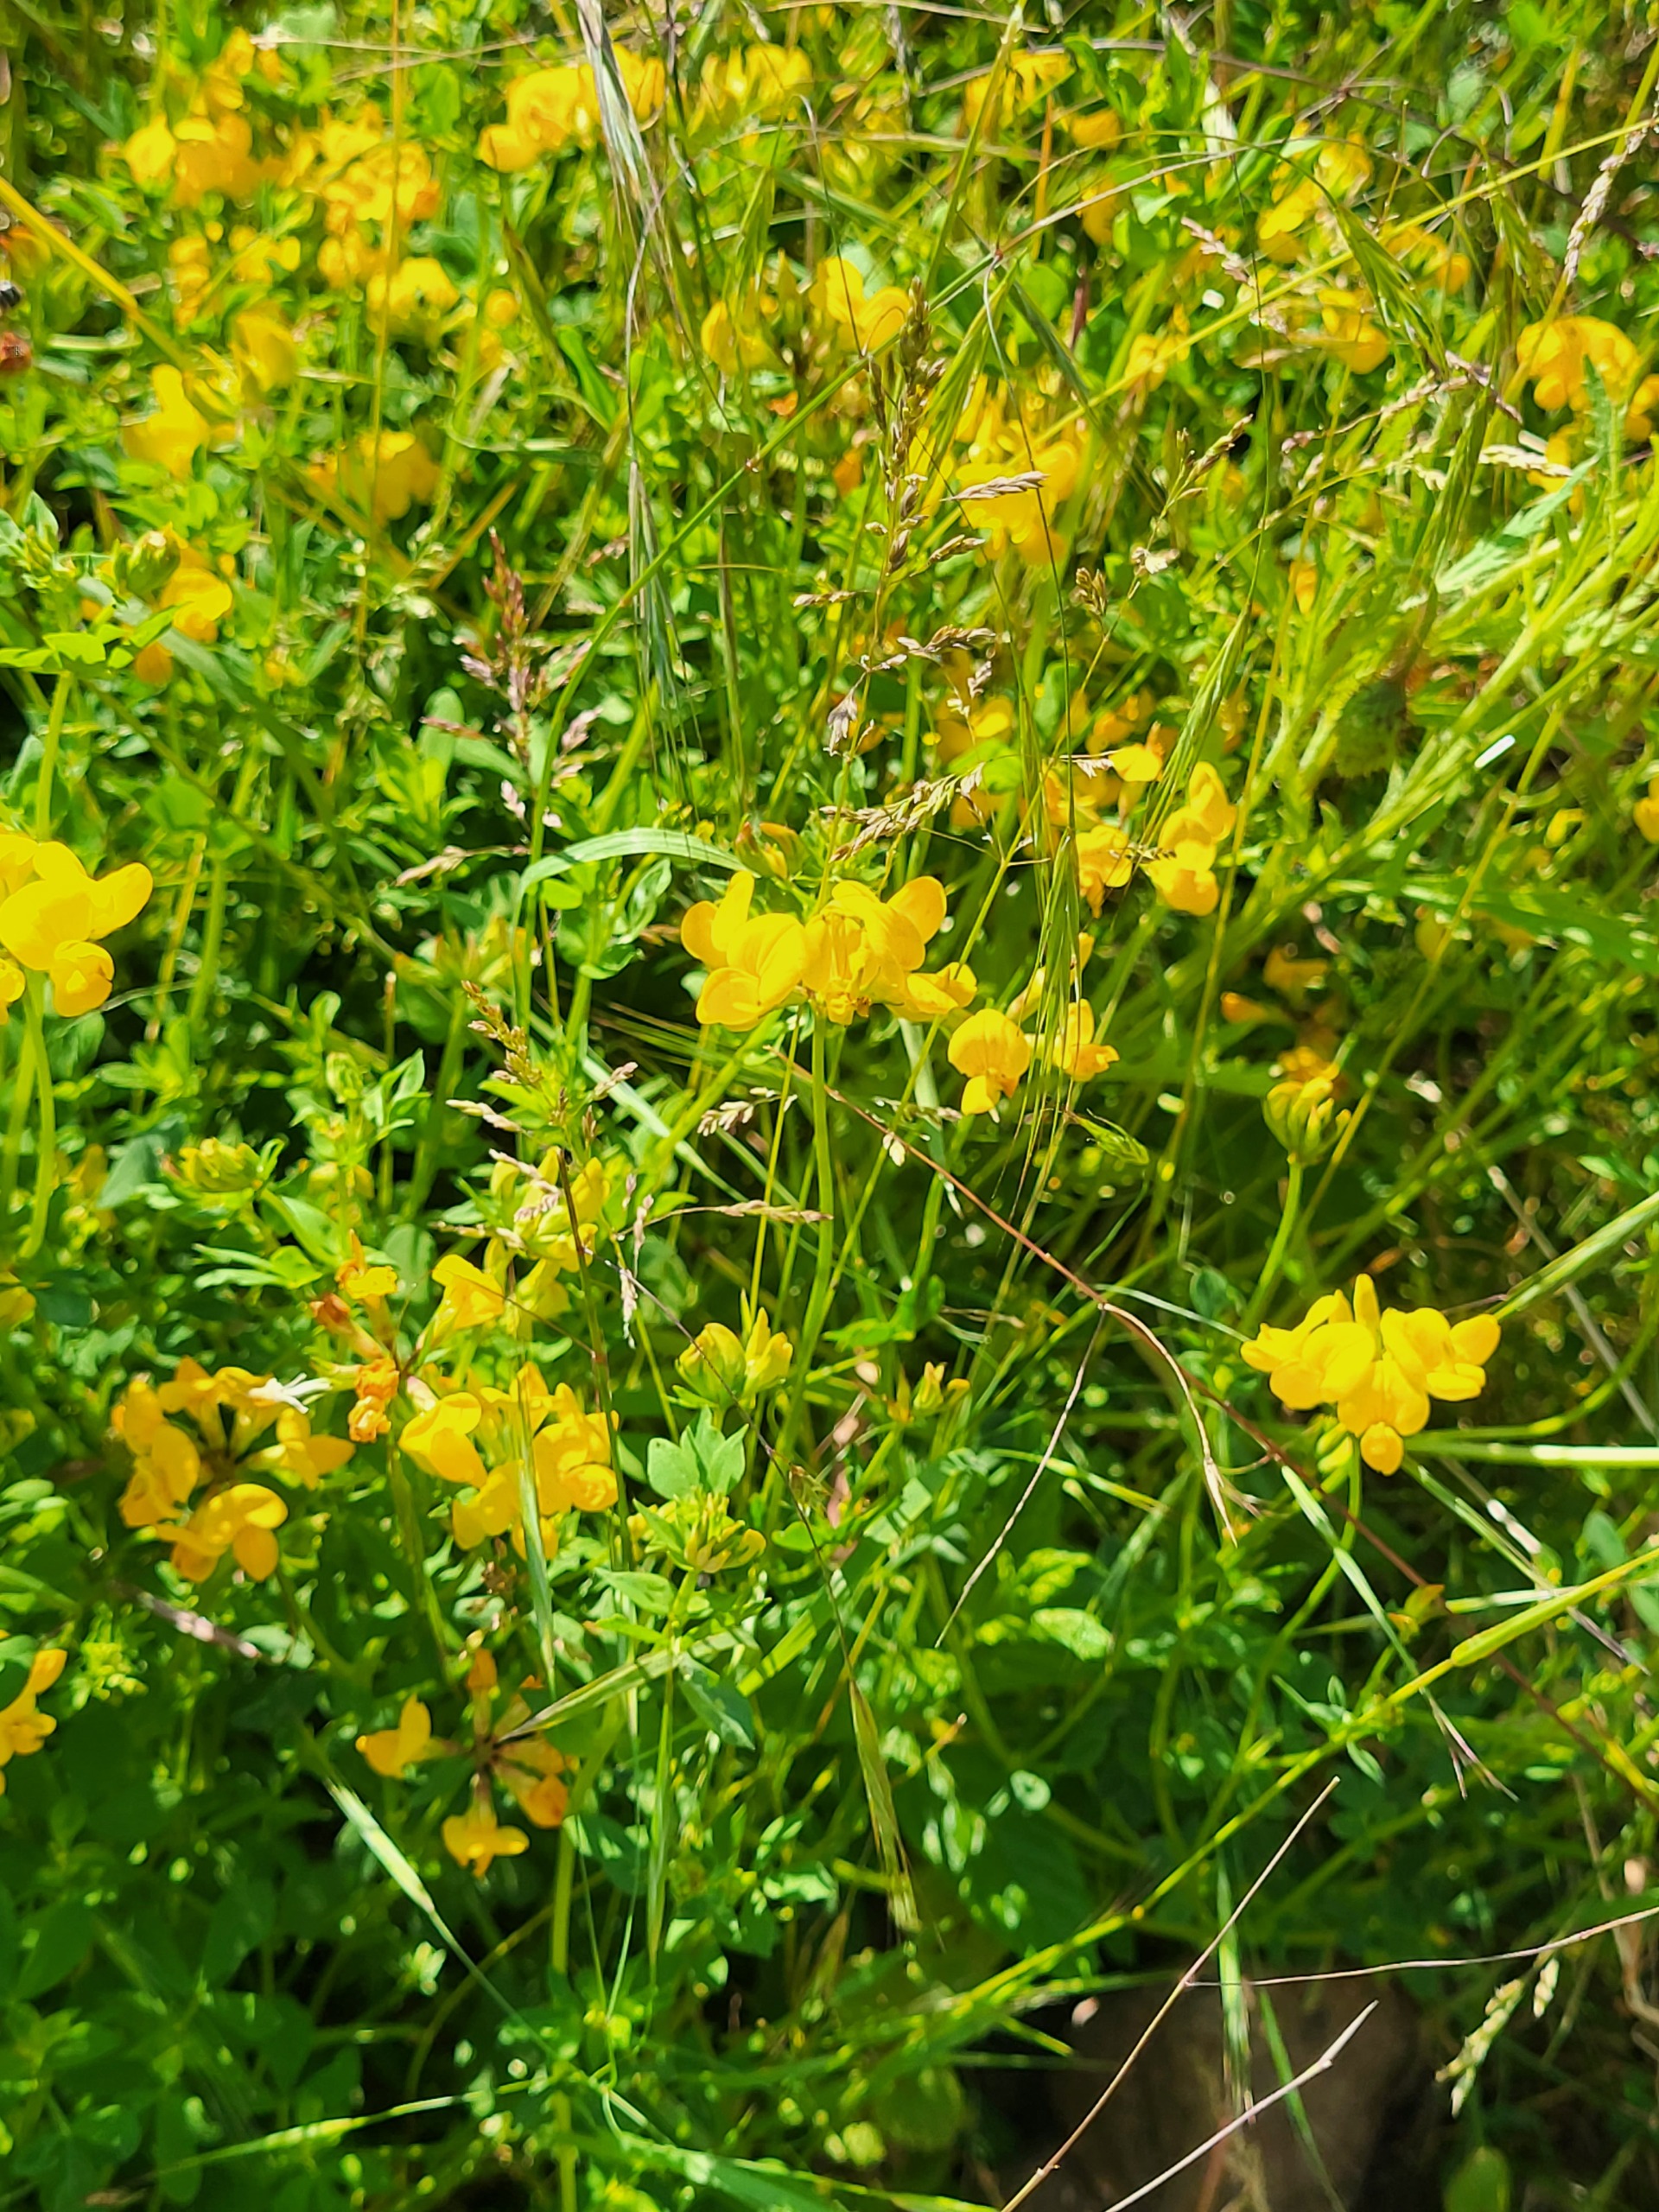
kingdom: Plantae
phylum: Tracheophyta
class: Magnoliopsida
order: Fabales
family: Fabaceae
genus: Lotus
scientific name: Lotus corniculatus
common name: Almindelig kællingetand
